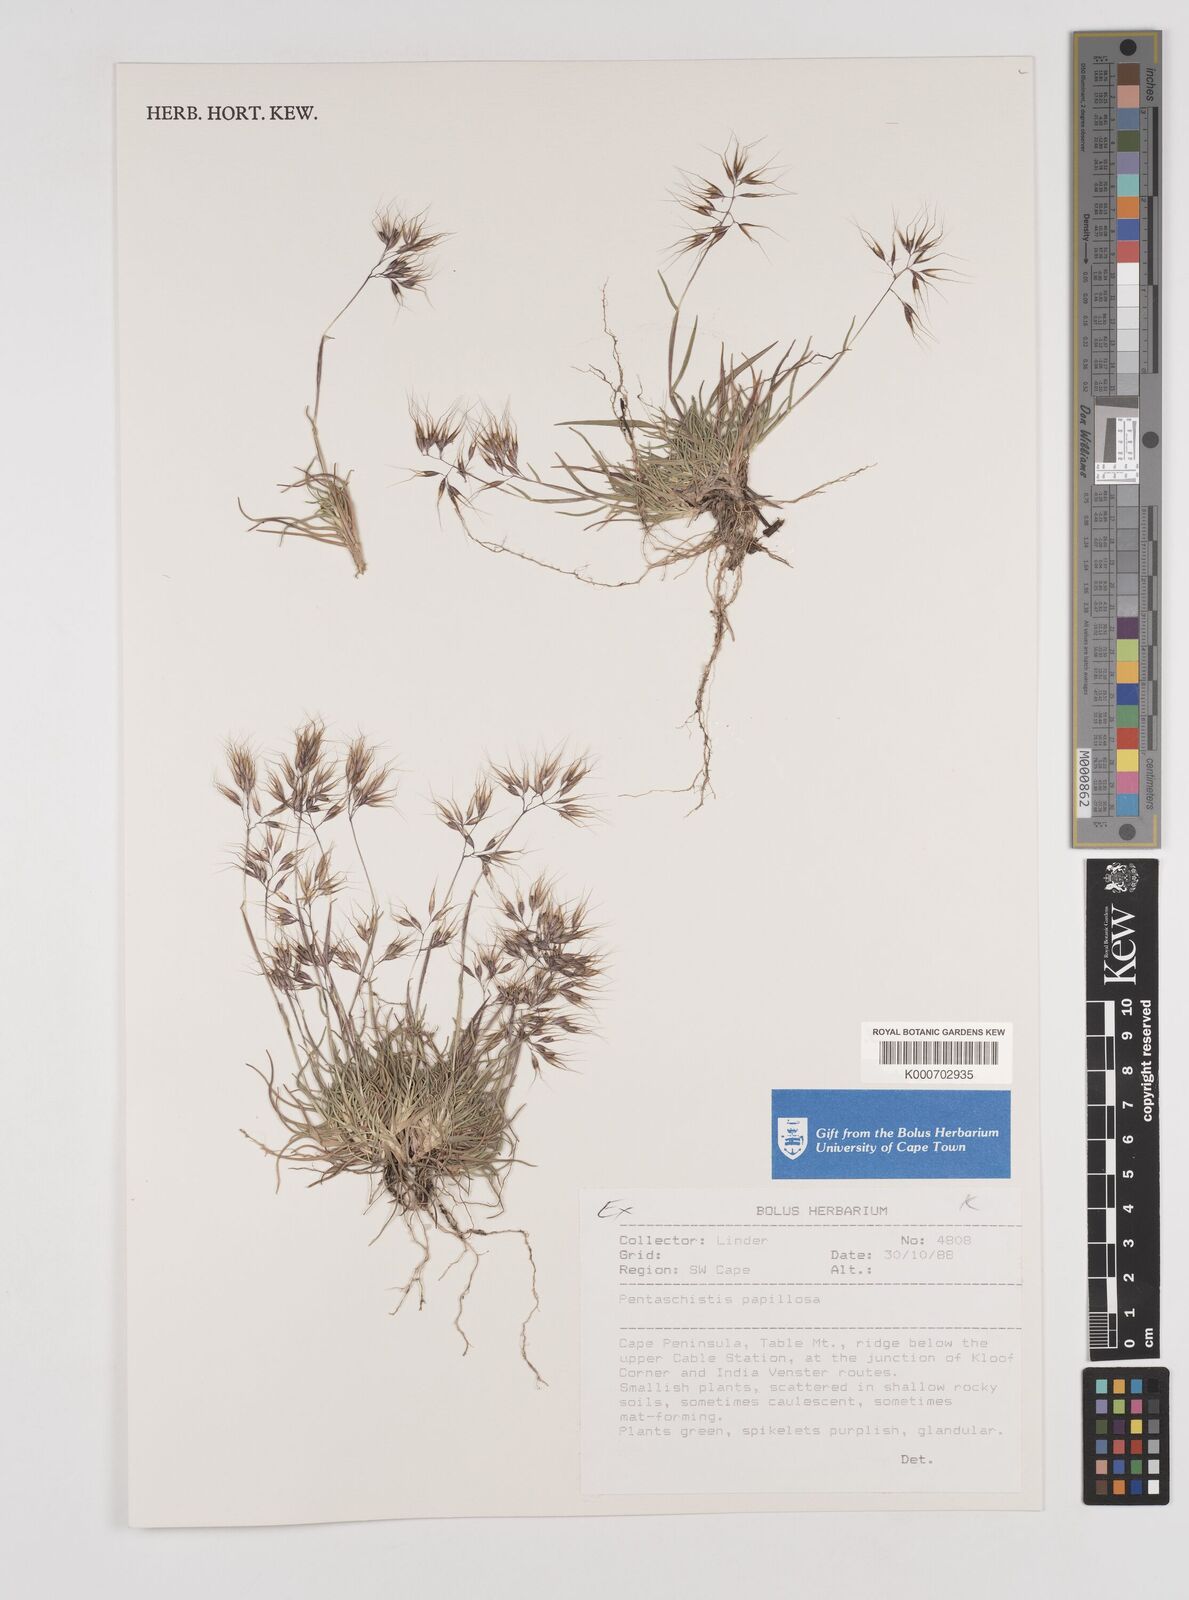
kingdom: Plantae
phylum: Tracheophyta
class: Liliopsida
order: Poales
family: Poaceae
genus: Pentameris
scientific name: Pentameris scabra
